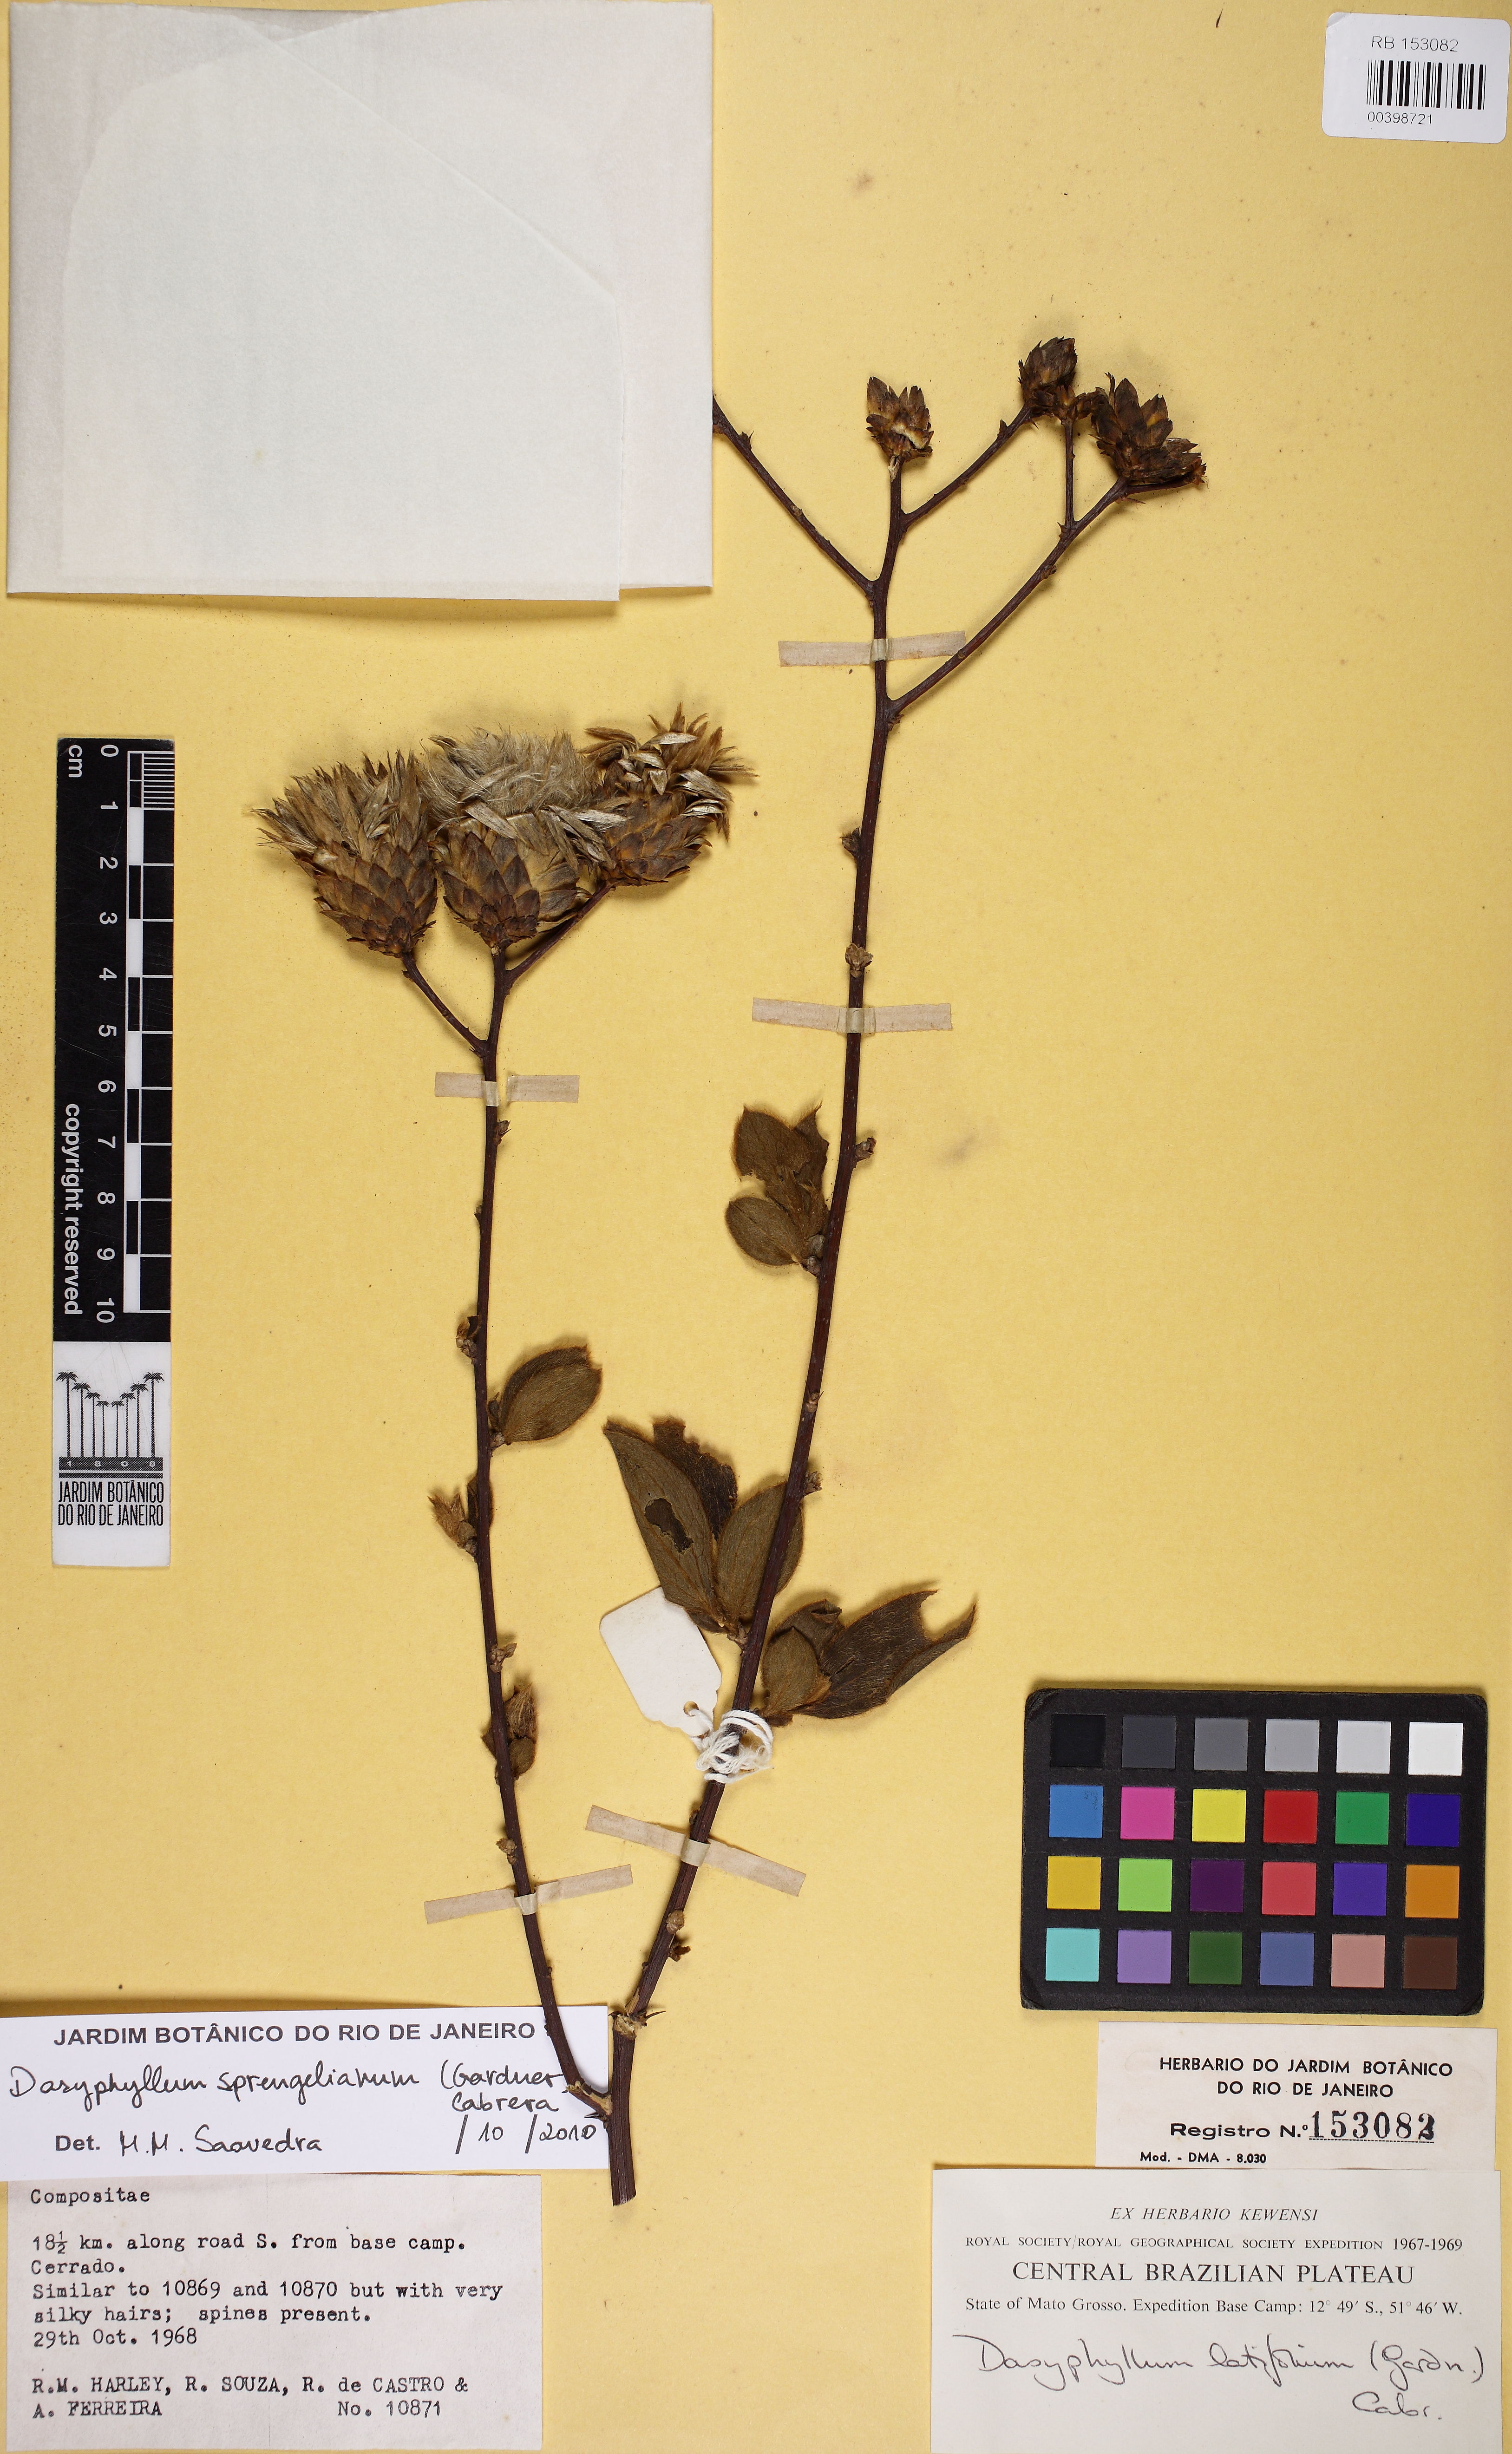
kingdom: Plantae
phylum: Tracheophyta
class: Magnoliopsida
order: Asterales
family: Asteraceae
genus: Dasyphyllum
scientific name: Dasyphyllum sprengelianum
